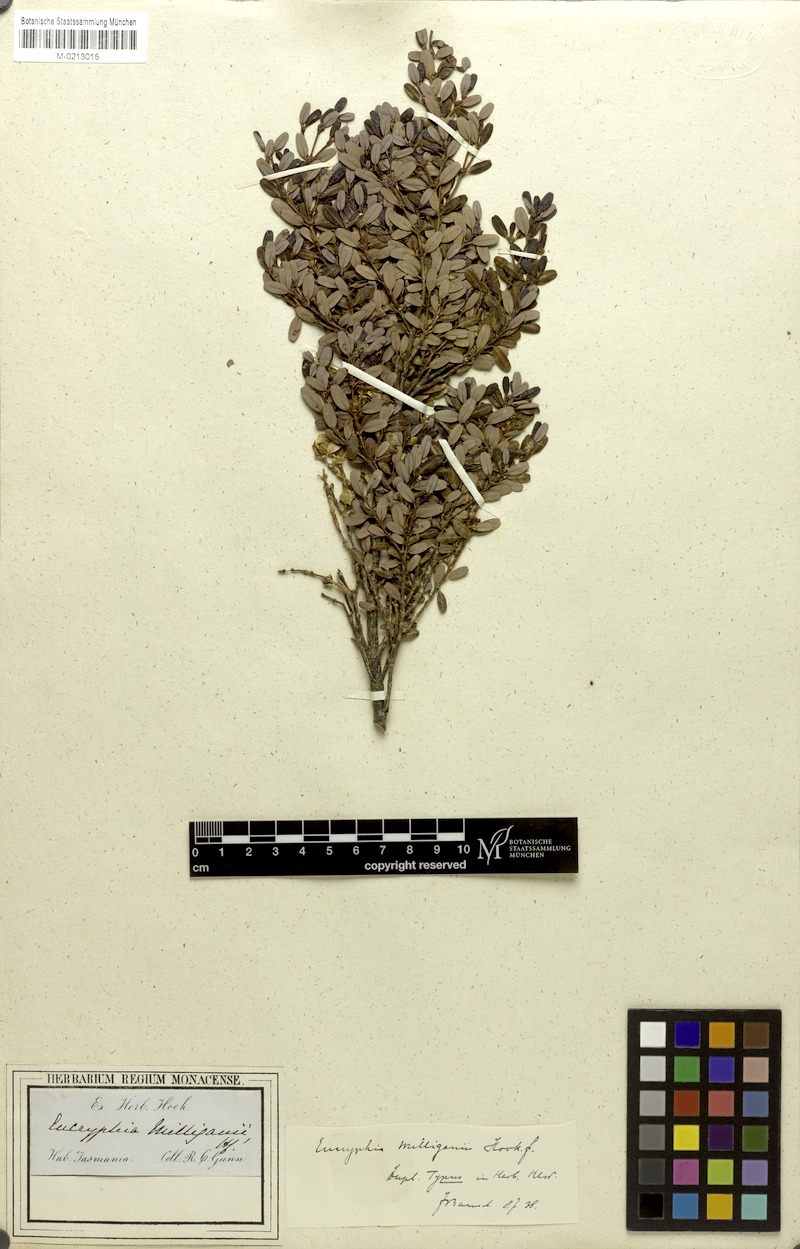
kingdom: Plantae
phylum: Tracheophyta
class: Magnoliopsida
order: Oxalidales
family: Cunoniaceae
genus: Eucryphia
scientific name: Eucryphia milliganii
